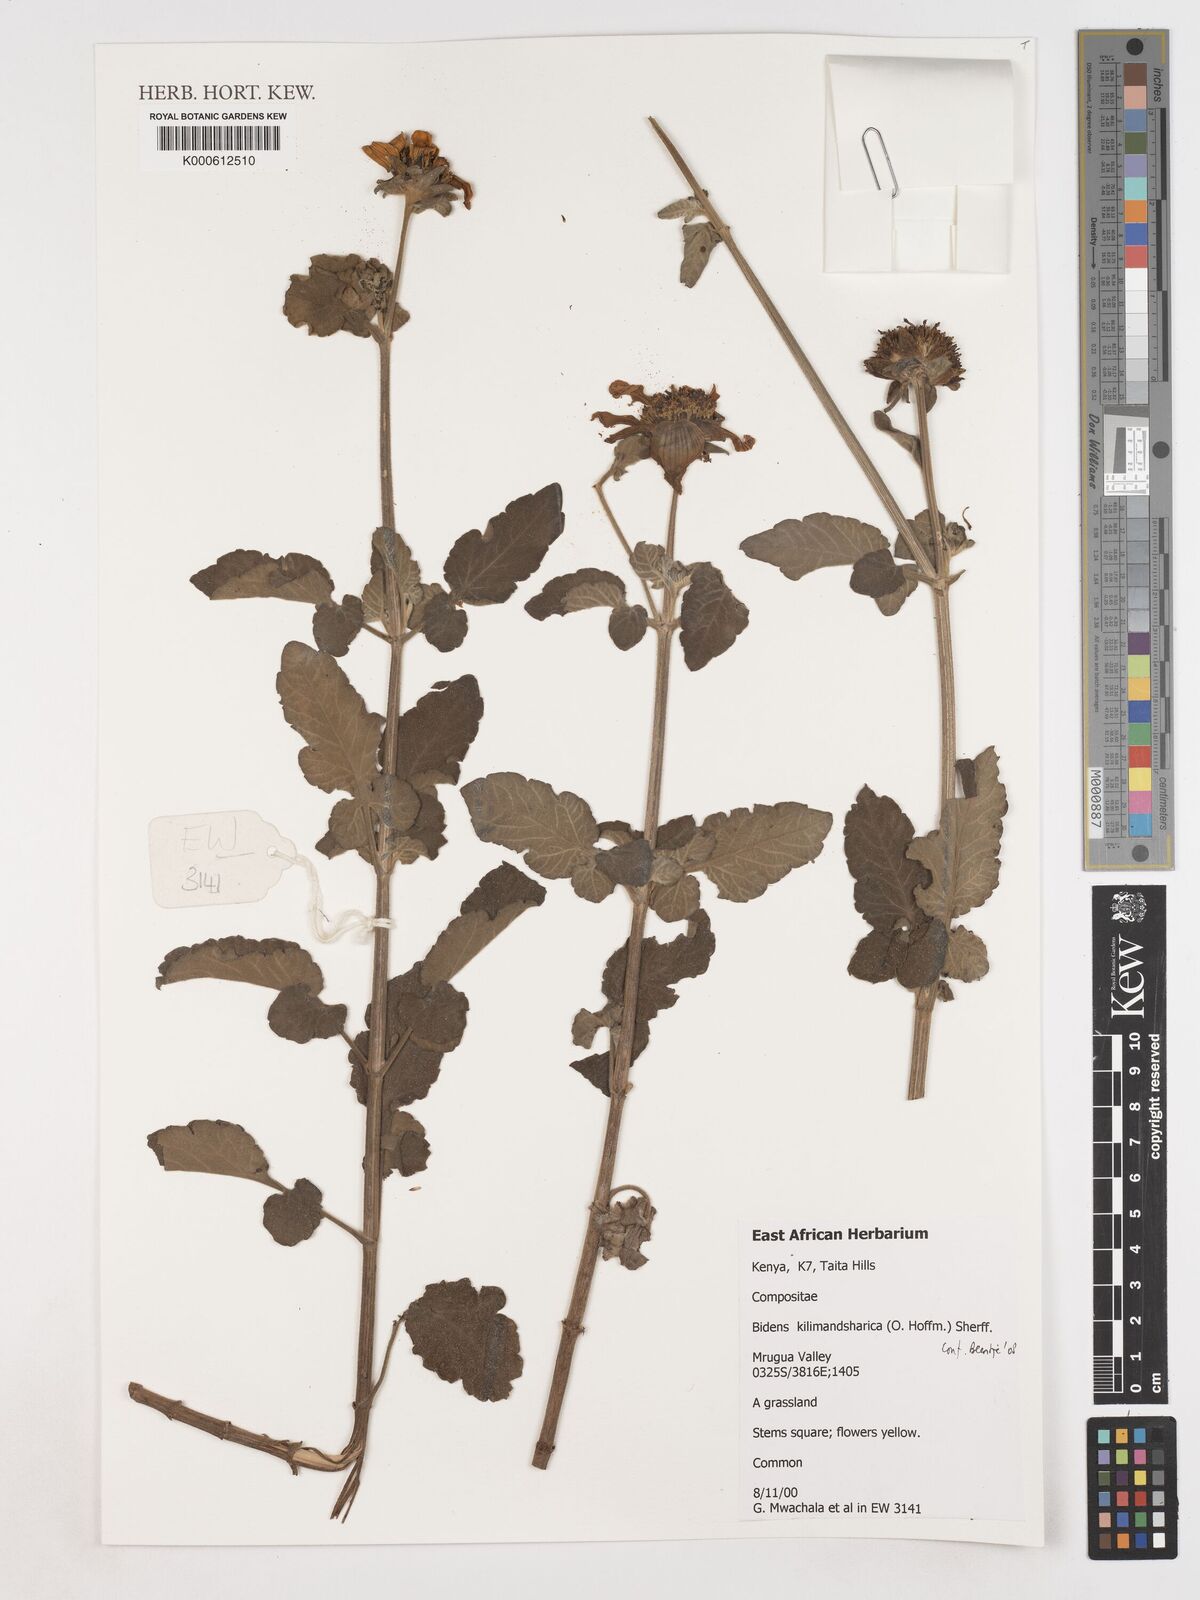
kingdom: Plantae
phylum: Tracheophyta
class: Magnoliopsida
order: Asterales
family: Asteraceae
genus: Bidens
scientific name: Bidens
